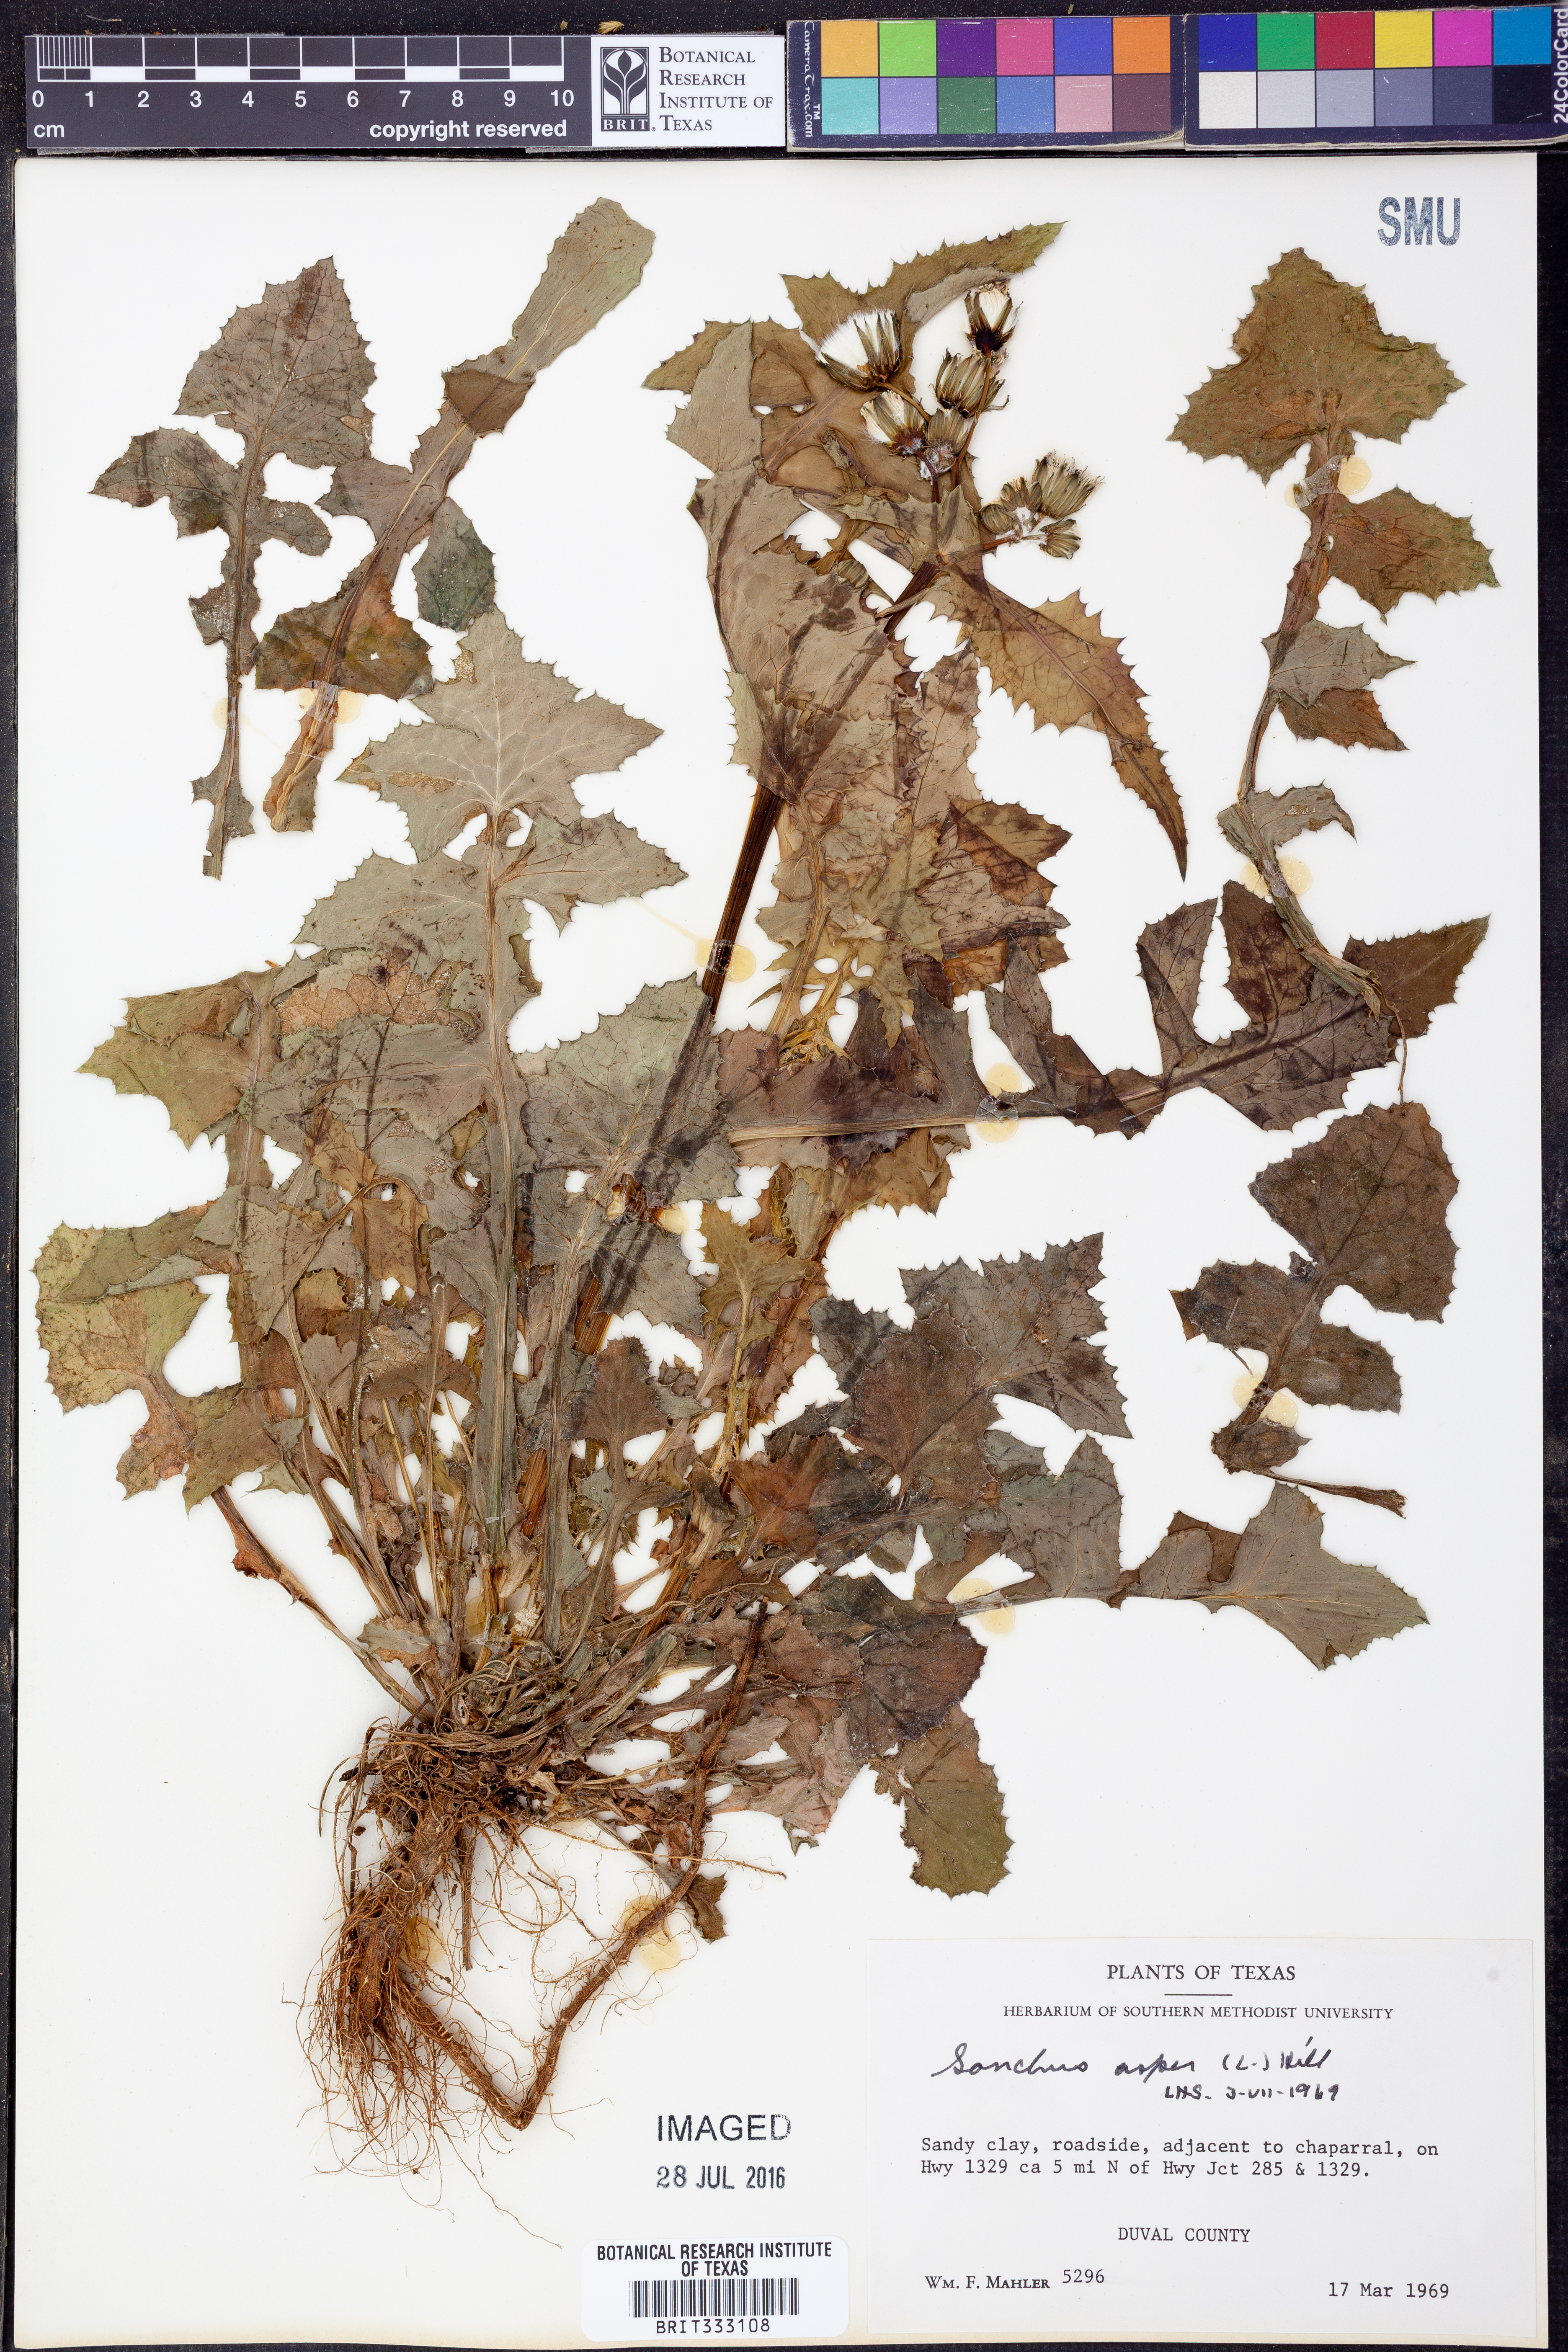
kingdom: Plantae
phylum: Tracheophyta
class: Magnoliopsida
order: Asterales
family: Asteraceae
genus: Sonchus
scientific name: Sonchus asper
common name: Prickly sow-thistle
